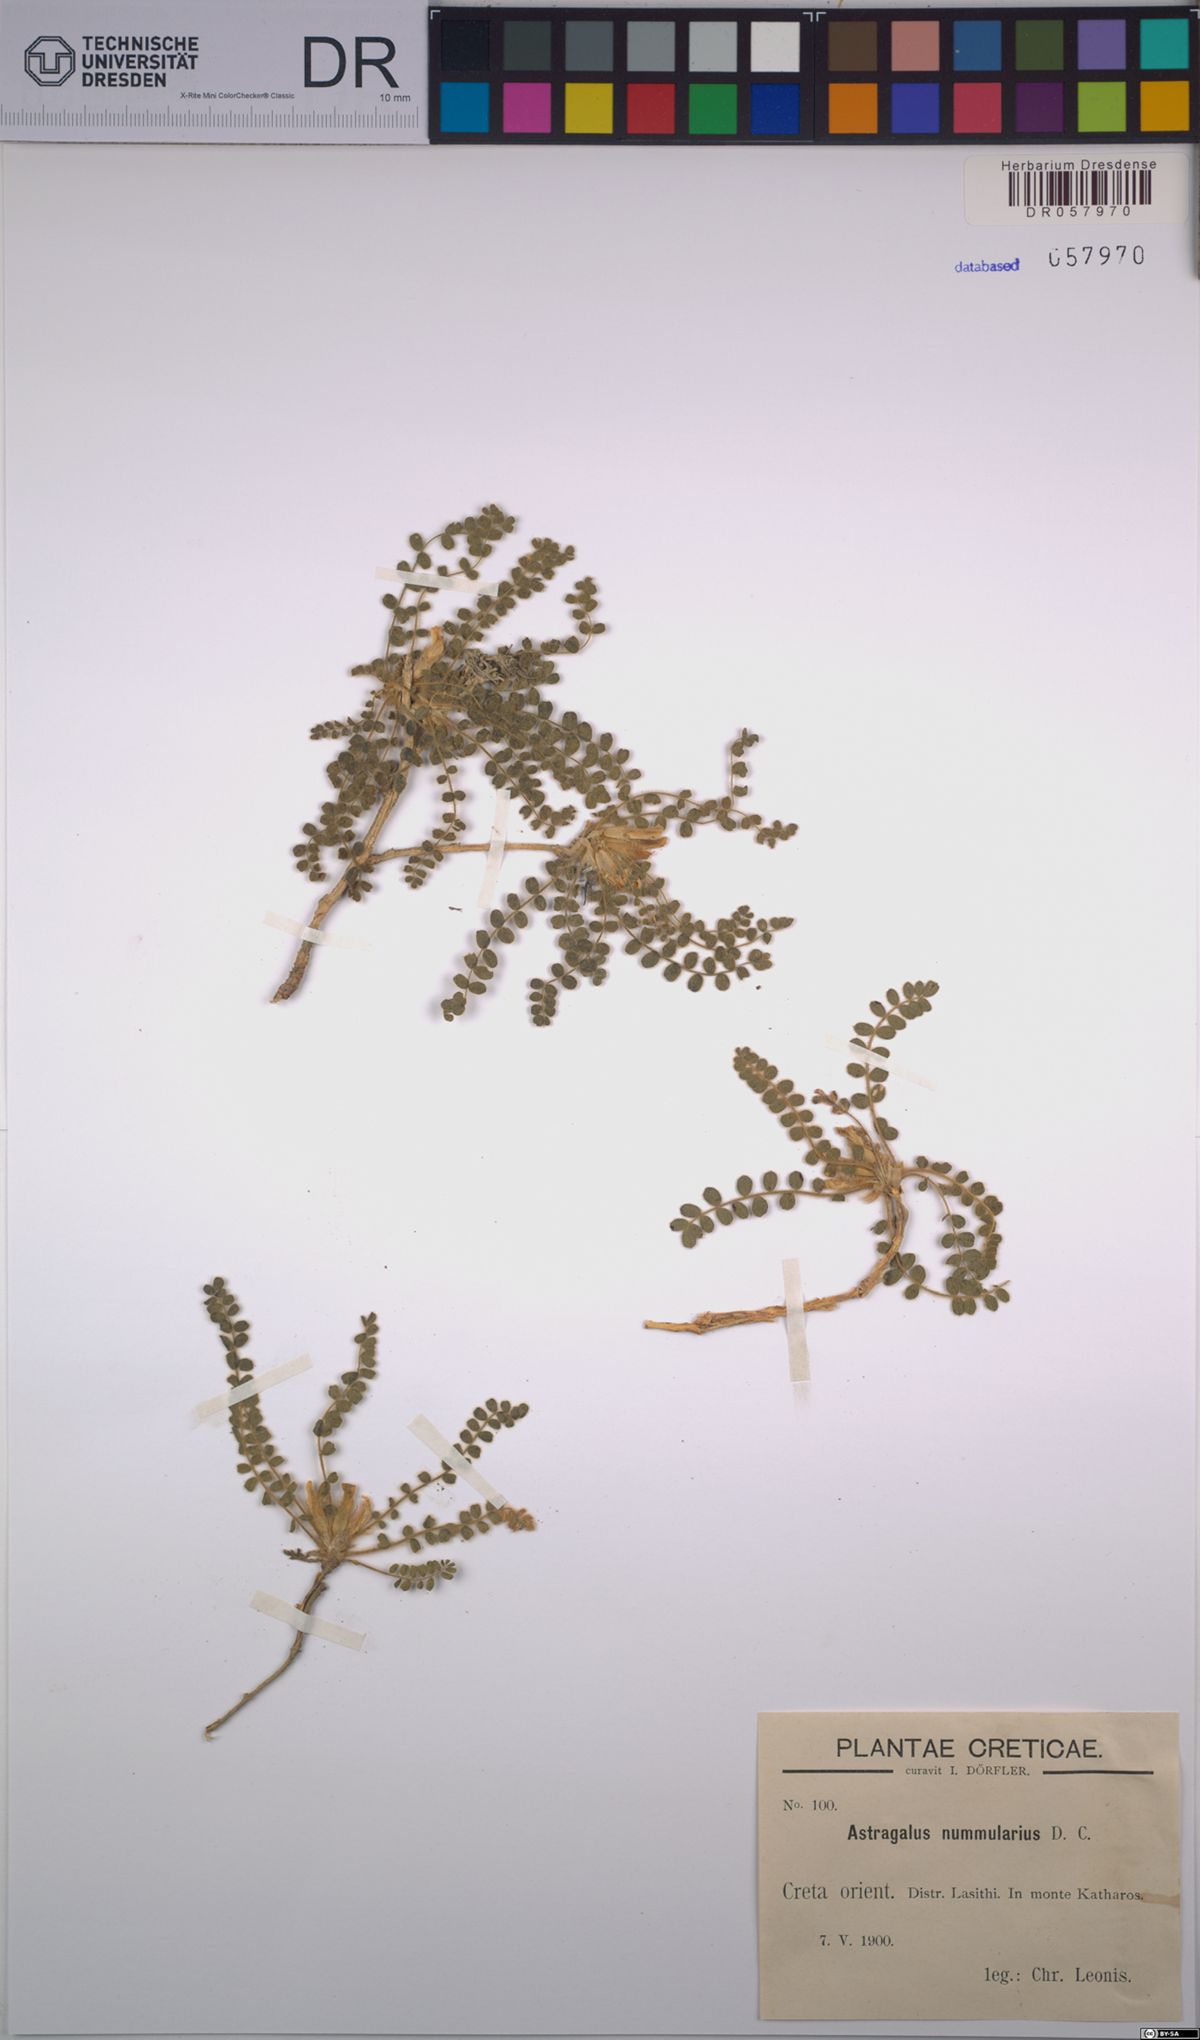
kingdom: Plantae
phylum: Tracheophyta
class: Magnoliopsida
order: Fabales
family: Fabaceae
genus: Astragalus
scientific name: Astragalus nummularius
